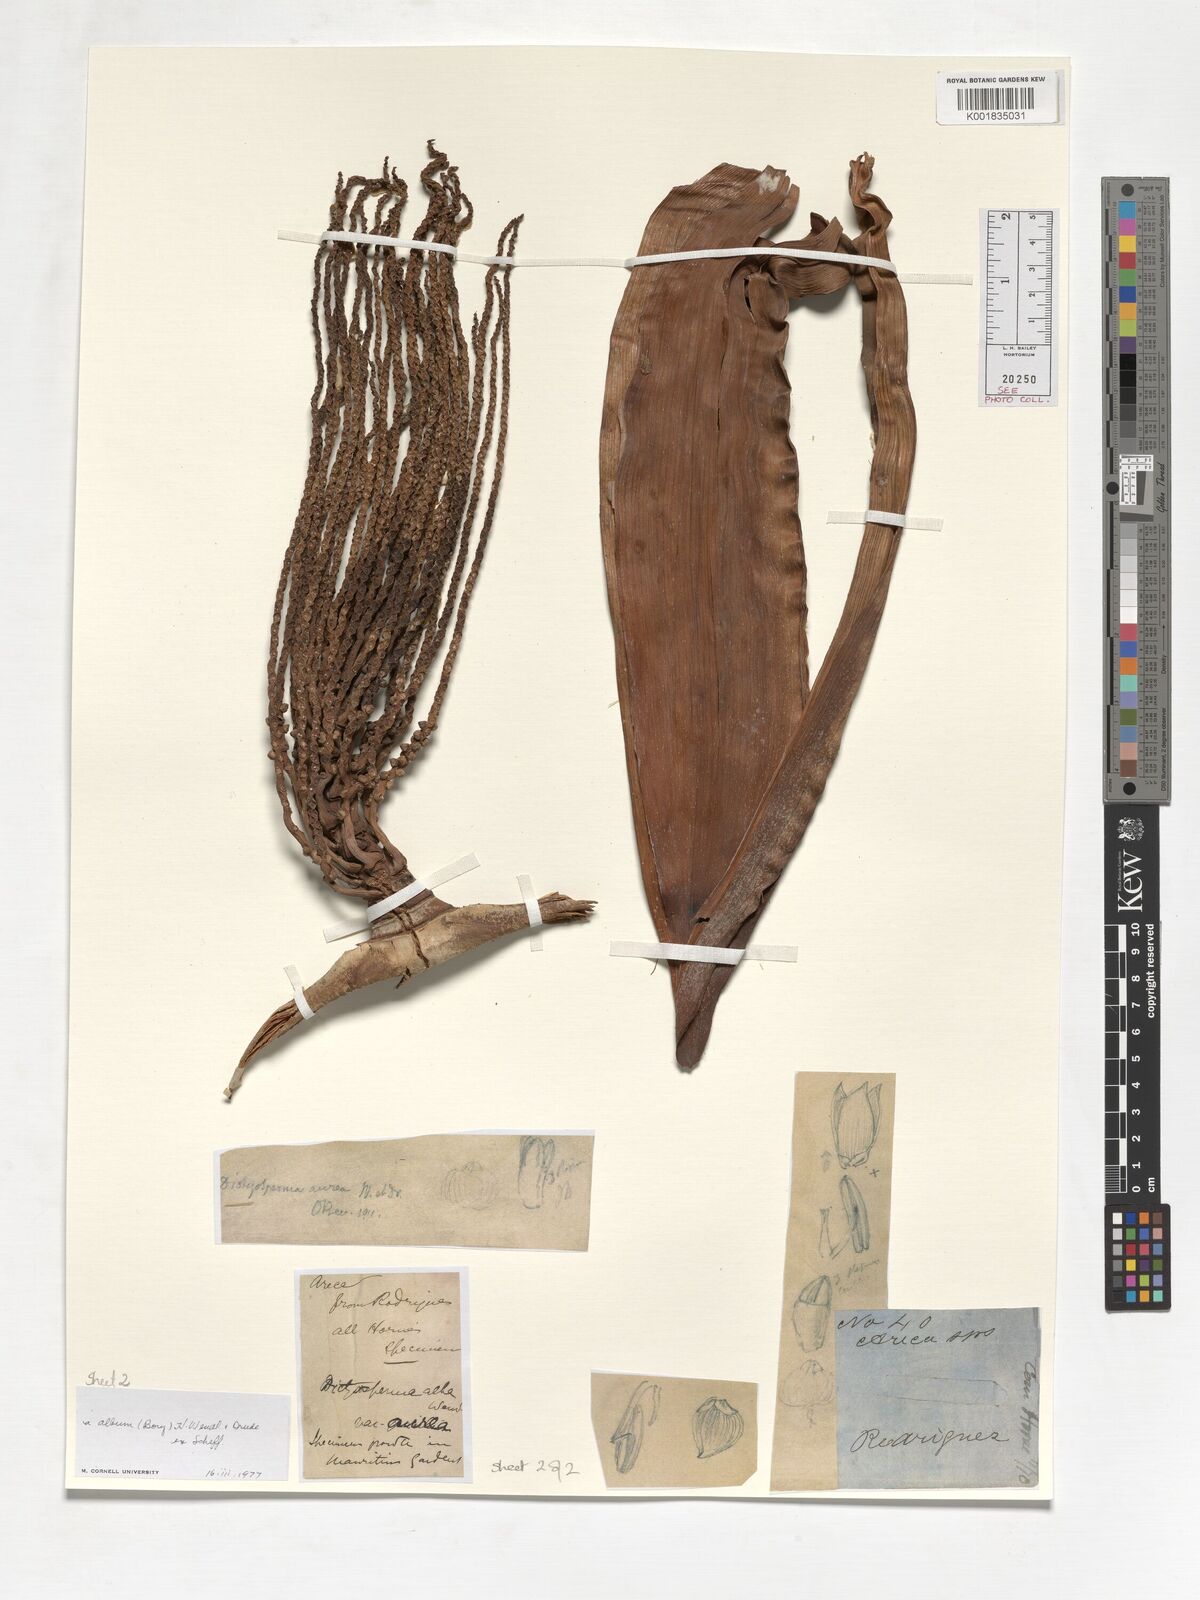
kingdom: Plantae
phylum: Tracheophyta
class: Liliopsida
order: Arecales
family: Arecaceae
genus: Dictyosperma
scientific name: Dictyosperma album
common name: Common princess palm
